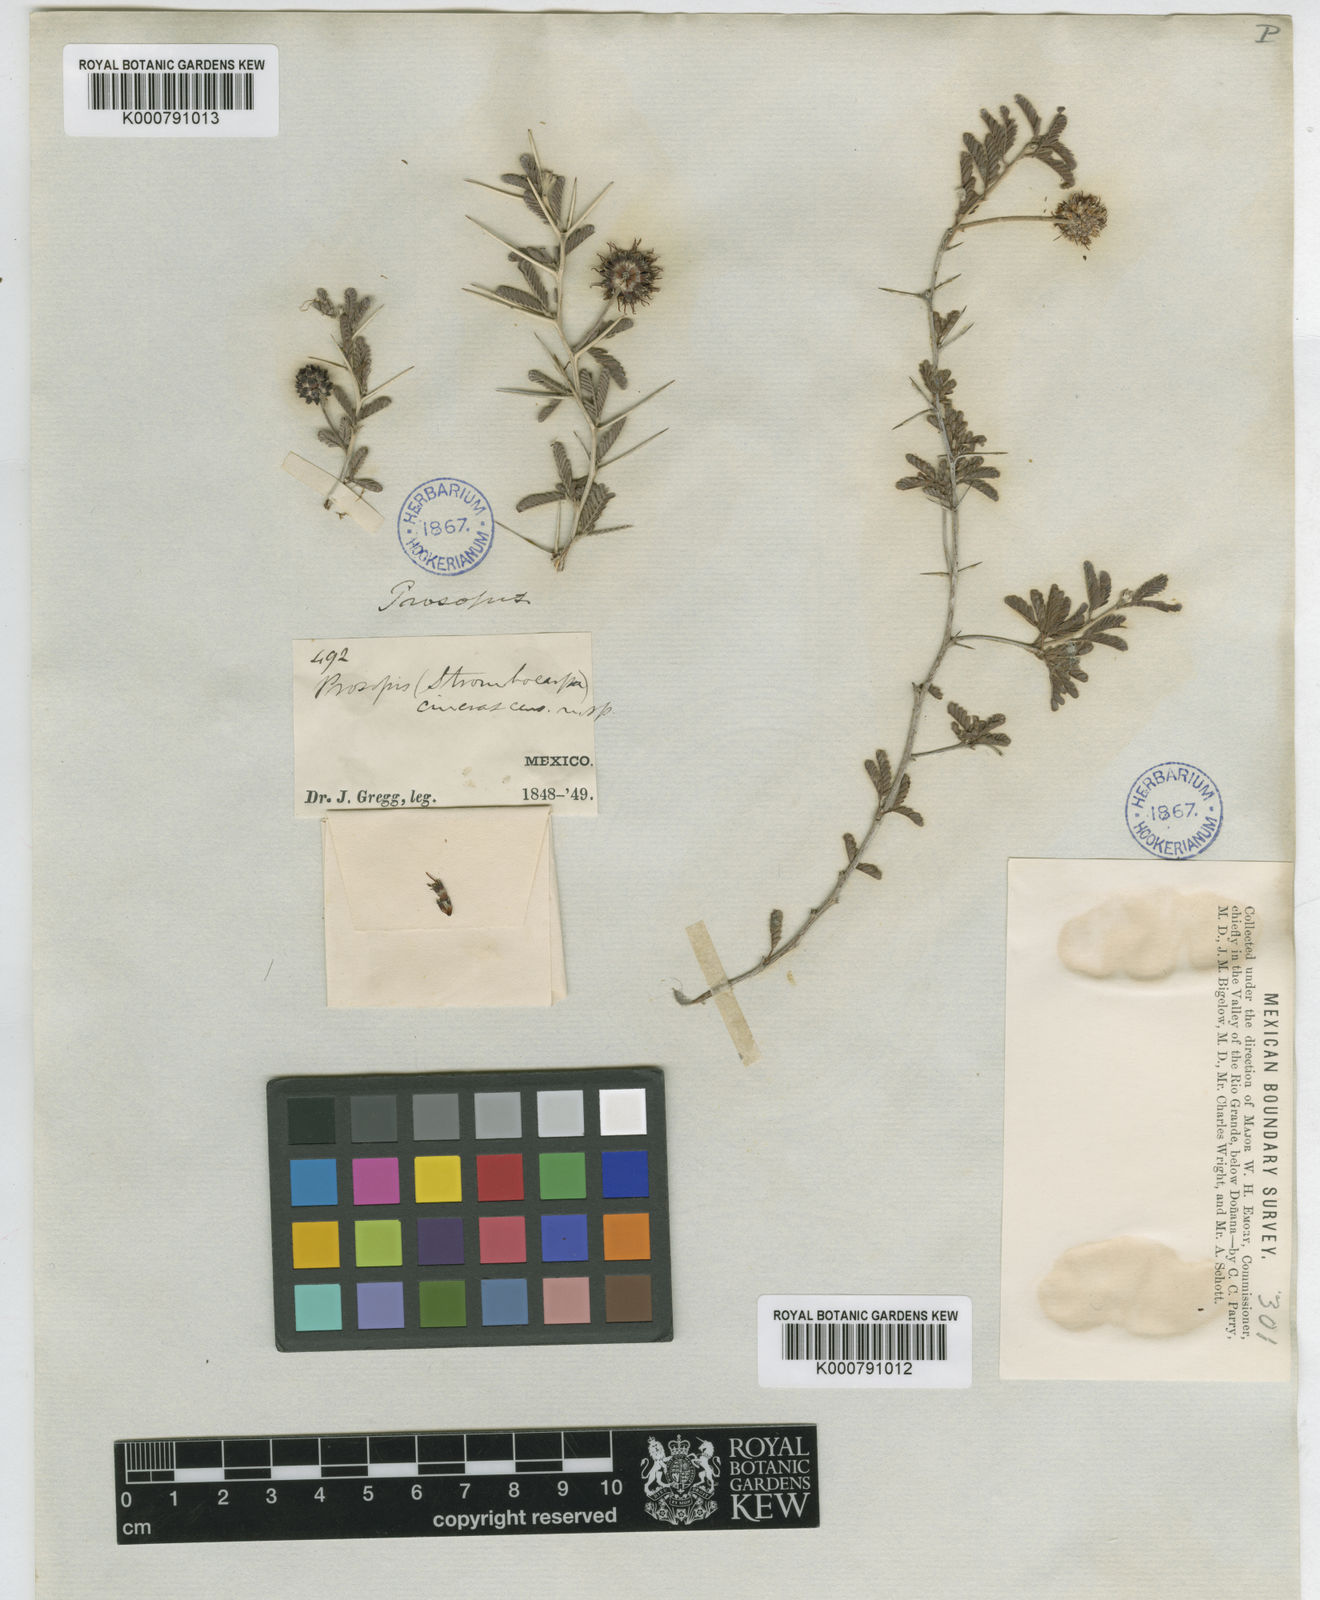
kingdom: Plantae
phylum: Tracheophyta
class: Magnoliopsida
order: Fabales
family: Fabaceae
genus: Prosopis
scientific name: Prosopis cinerascens
